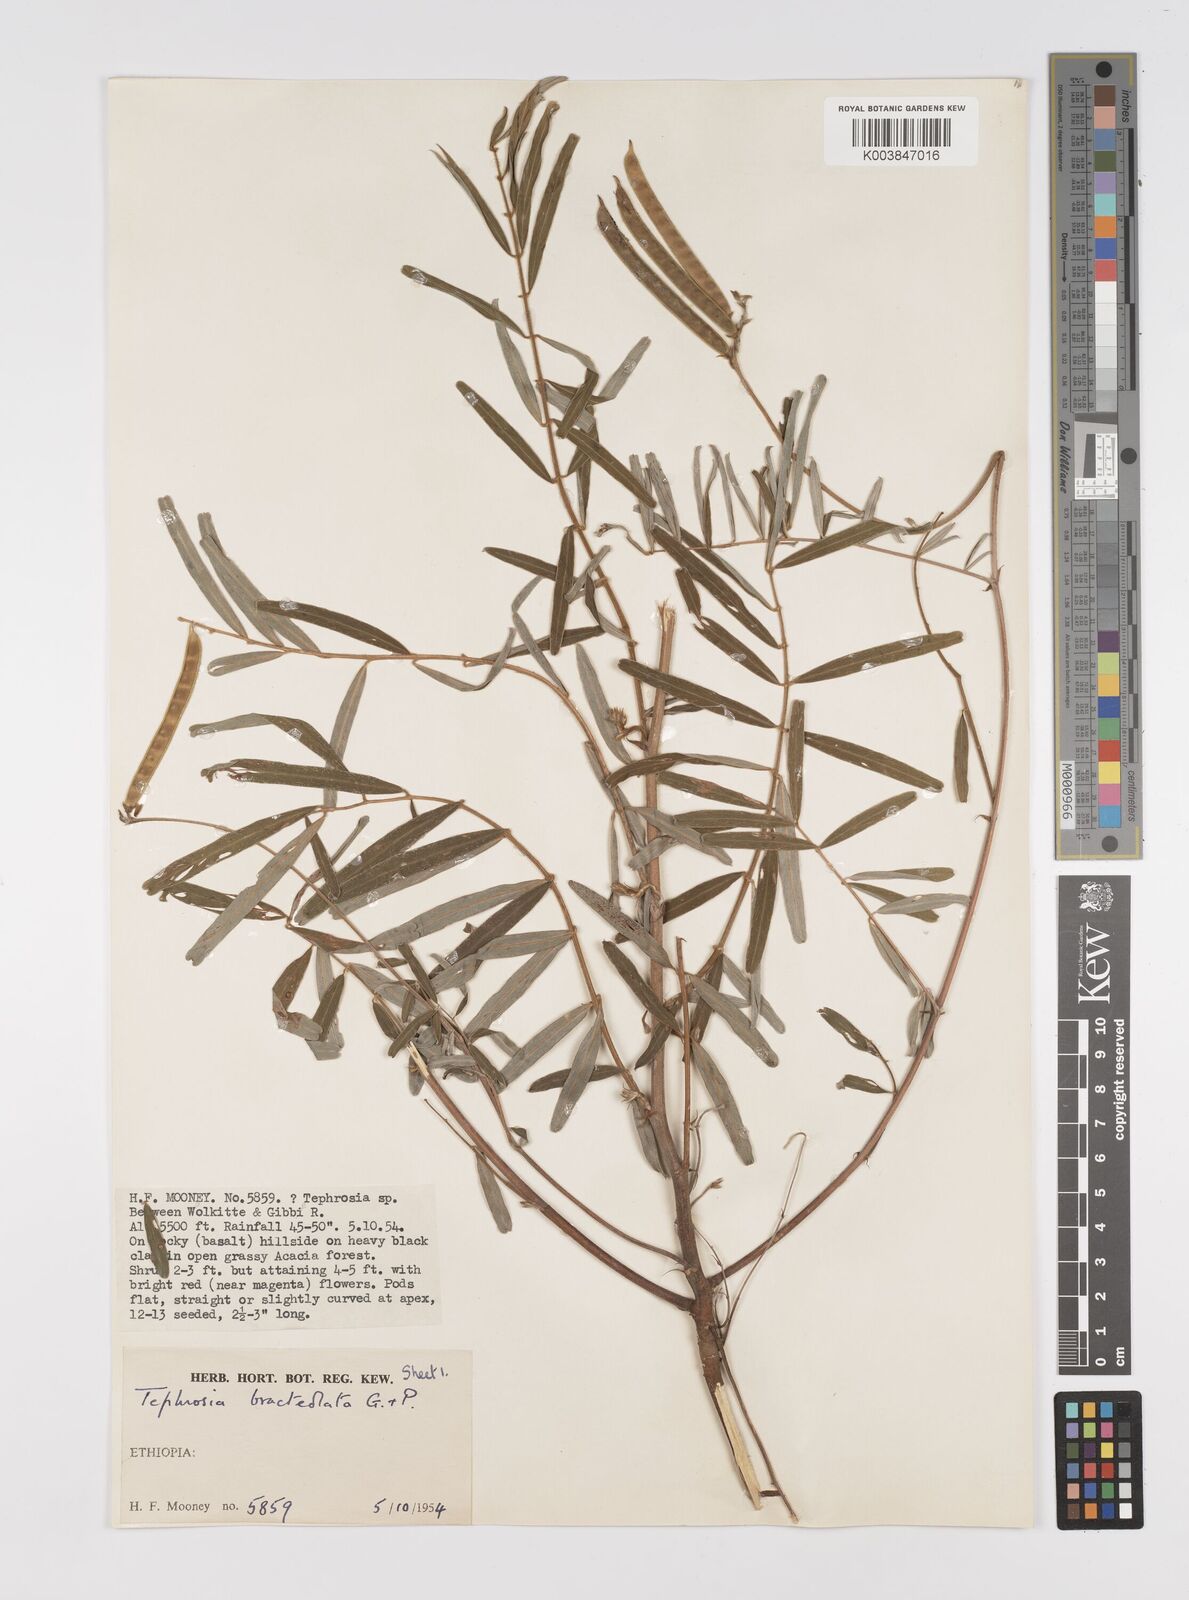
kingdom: Plantae
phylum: Tracheophyta
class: Magnoliopsida
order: Fabales
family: Fabaceae
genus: Tephrosia
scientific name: Tephrosia bracteolata
